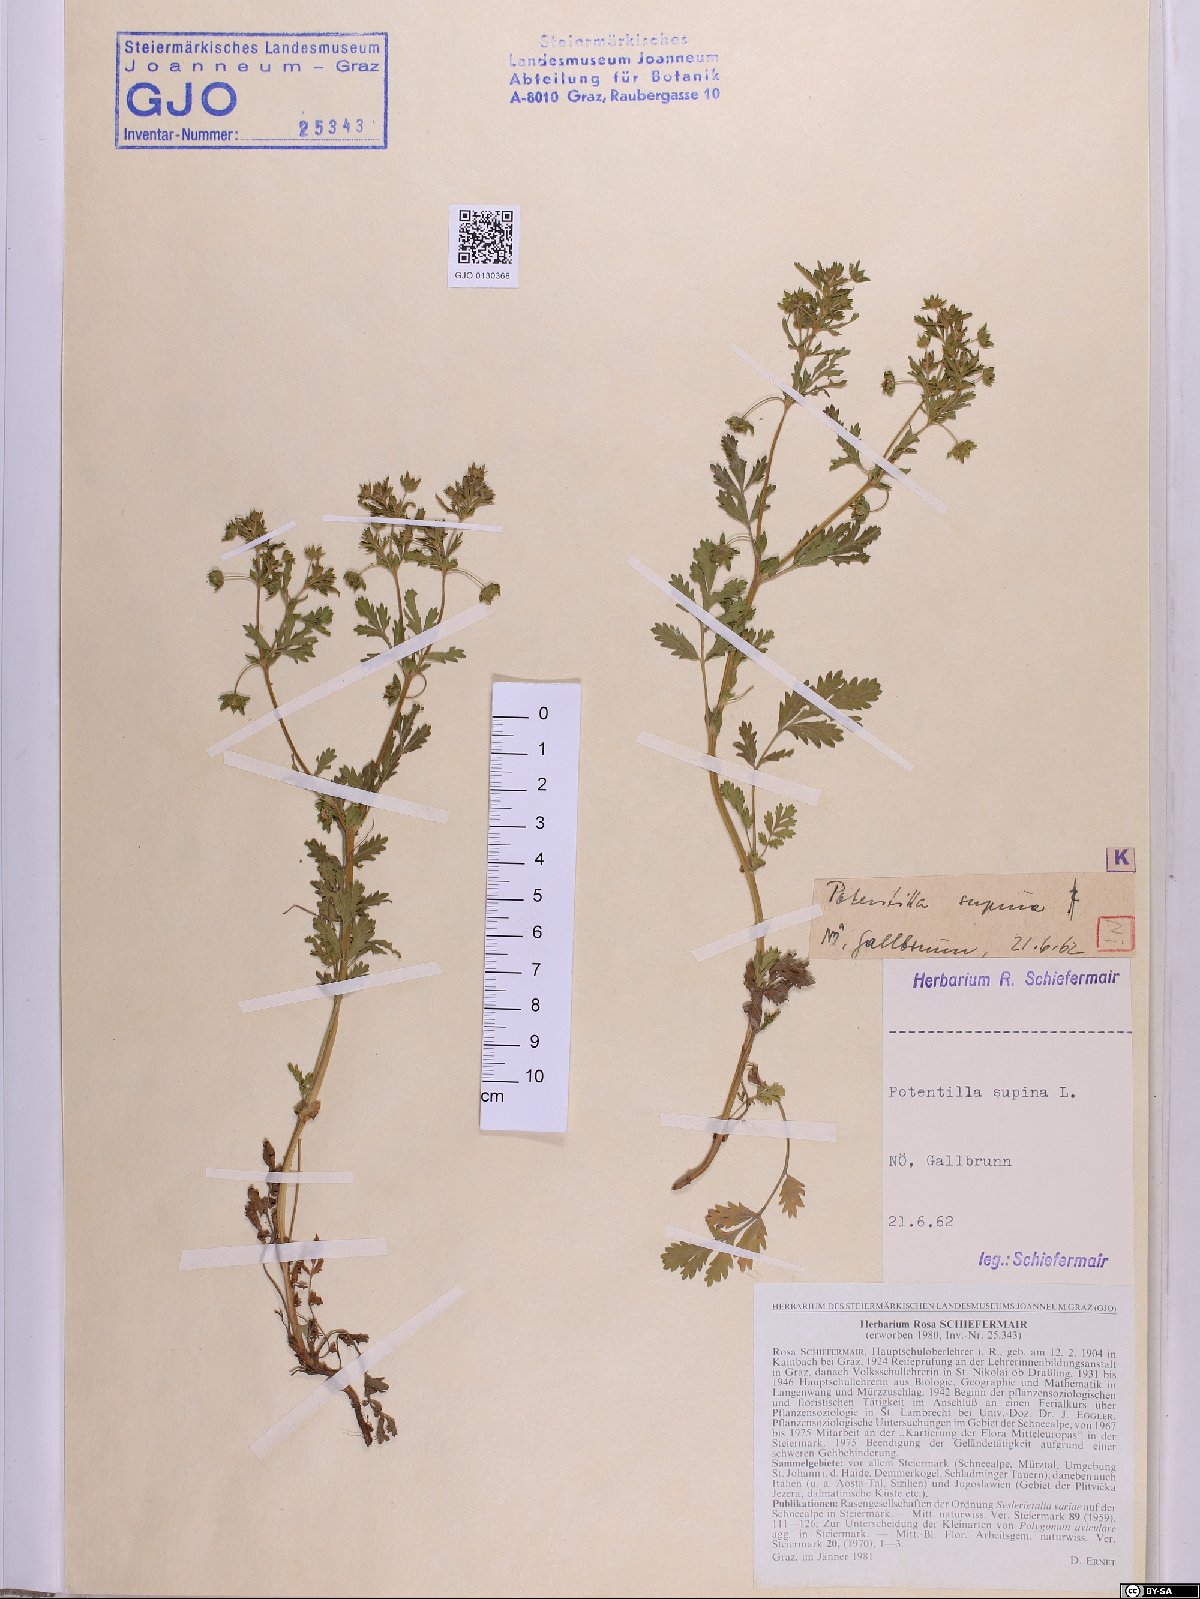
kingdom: Plantae
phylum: Tracheophyta
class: Magnoliopsida
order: Rosales
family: Rosaceae
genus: Potentilla
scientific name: Potentilla supina
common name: Prostrate cinquefoil
